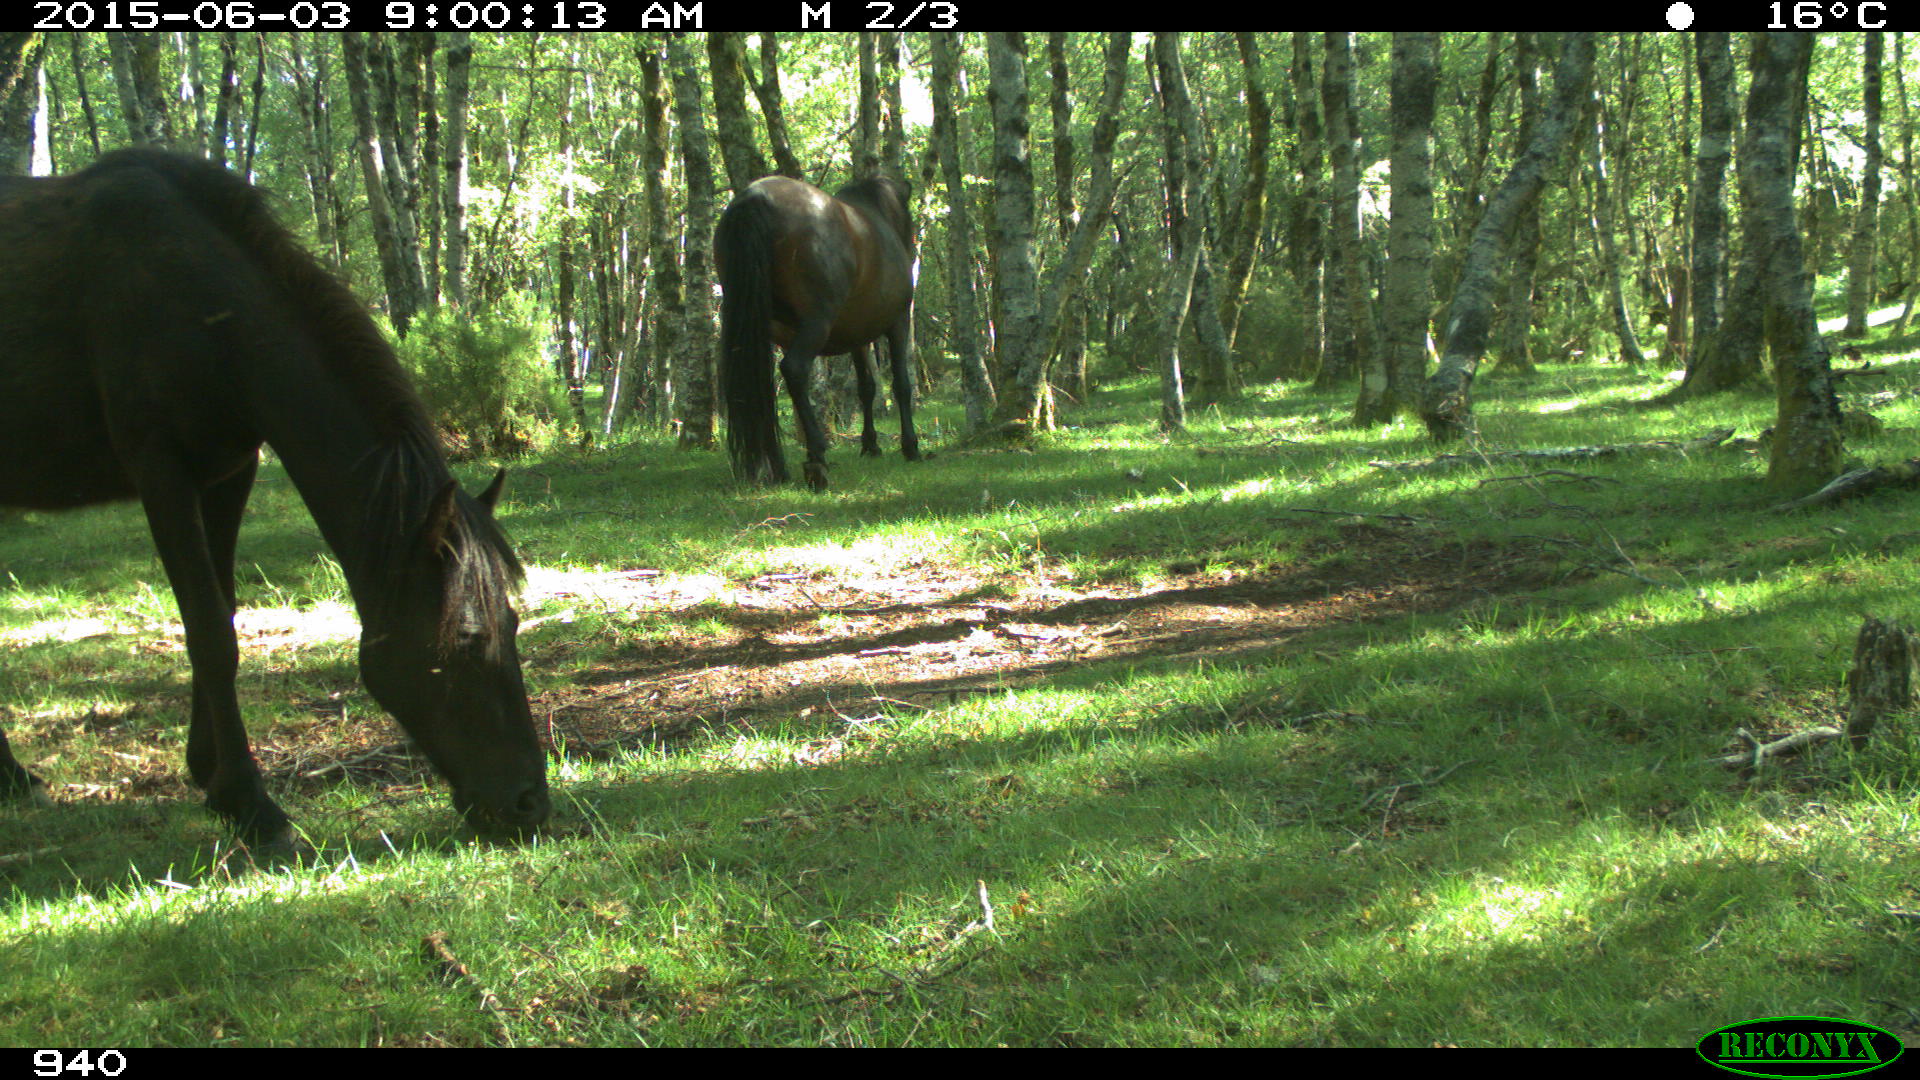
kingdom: Animalia
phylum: Chordata
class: Mammalia
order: Perissodactyla
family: Equidae
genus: Equus
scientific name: Equus caballus
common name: Horse
